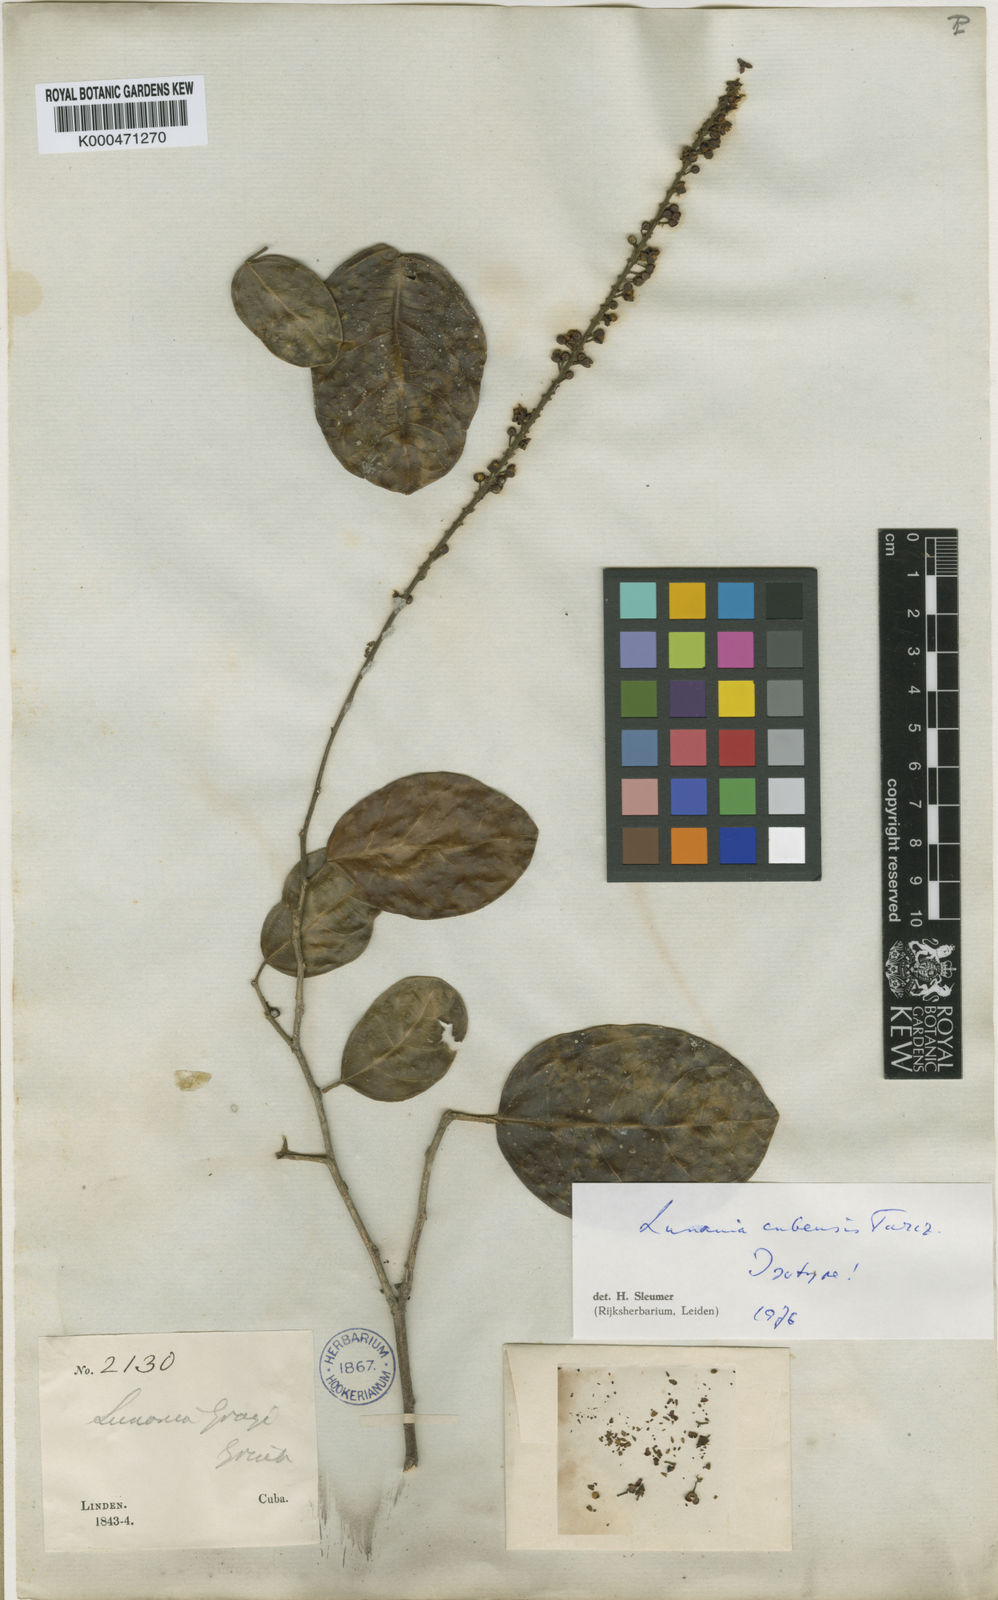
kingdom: Plantae
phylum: Tracheophyta
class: Magnoliopsida
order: Malpighiales
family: Salicaceae
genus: Lunania
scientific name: Lunania cubensis
